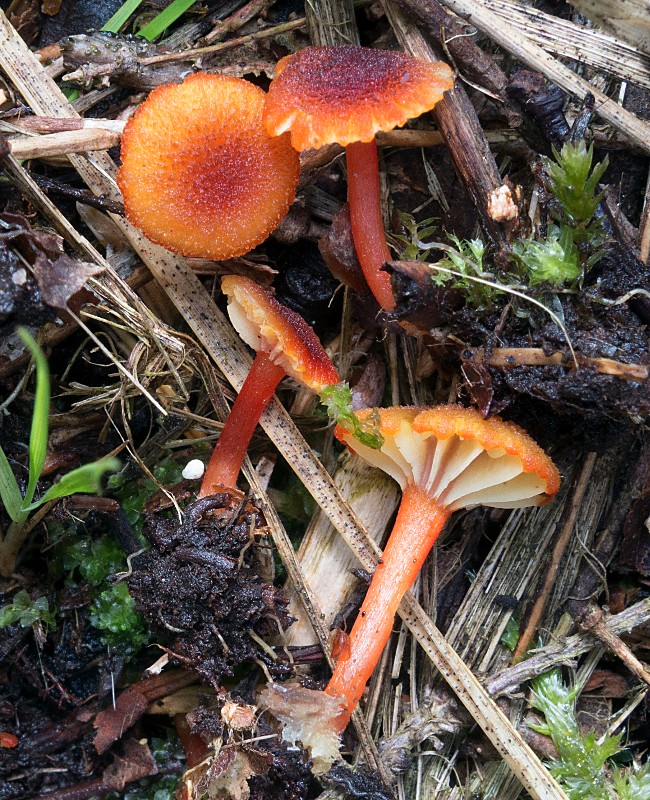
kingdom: Fungi
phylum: Basidiomycota
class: Agaricomycetes
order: Agaricales
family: Hygrophoraceae
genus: Hygrocybe
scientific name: Hygrocybe coccineocrenata
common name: tørvemos-vokshat
